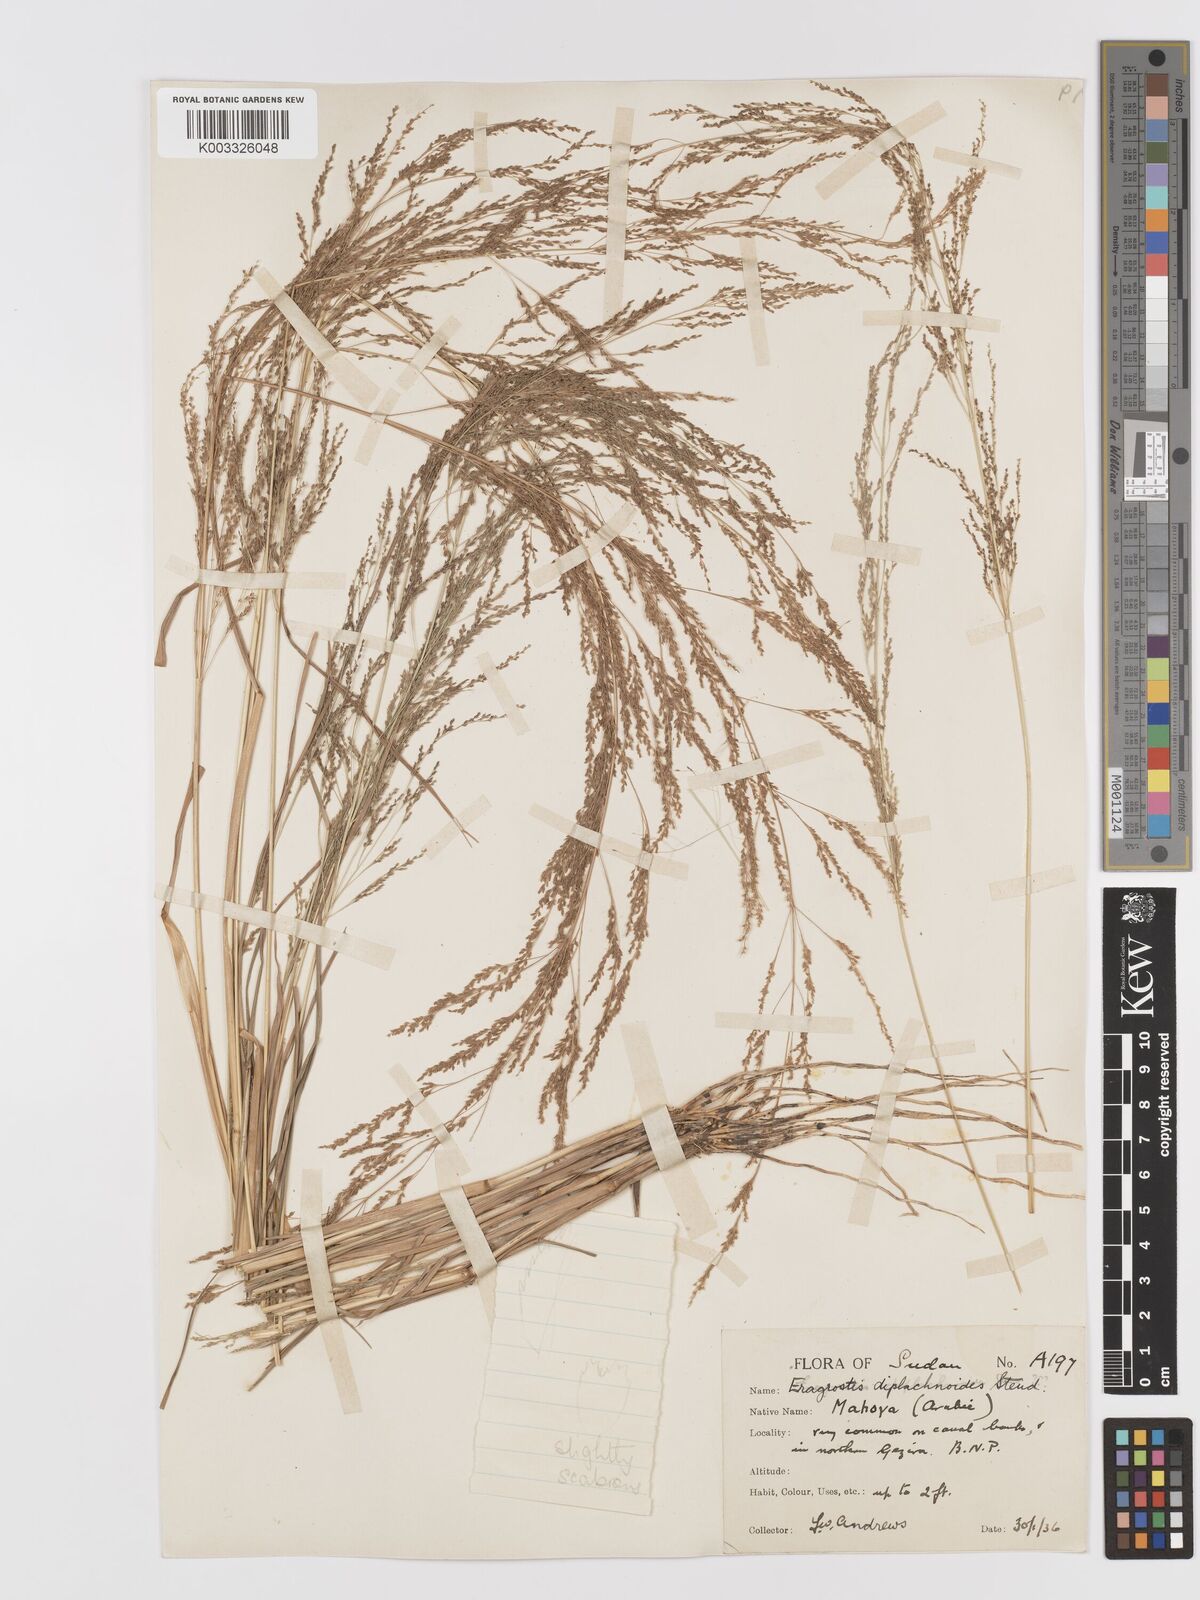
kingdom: Plantae
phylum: Tracheophyta
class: Liliopsida
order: Poales
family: Poaceae
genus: Eragrostis
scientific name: Eragrostis japonica
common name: Pond lovegrass
